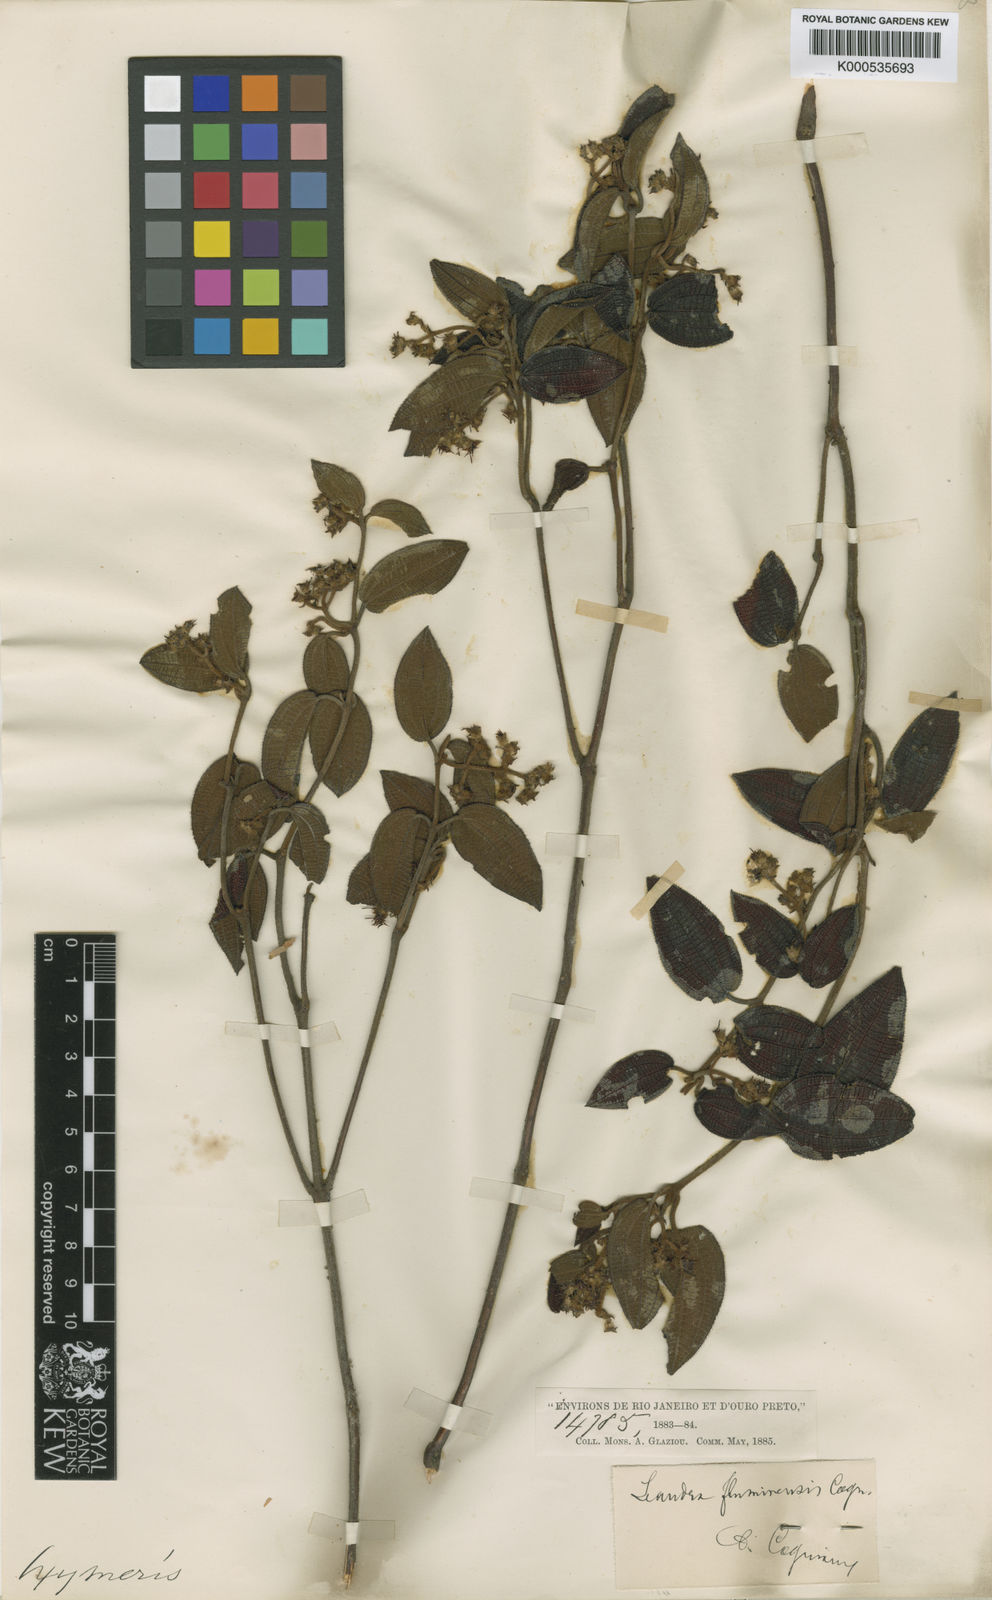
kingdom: Plantae
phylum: Tracheophyta
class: Magnoliopsida
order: Myrtales
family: Melastomataceae
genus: Miconia
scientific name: Miconia leafluminensis
